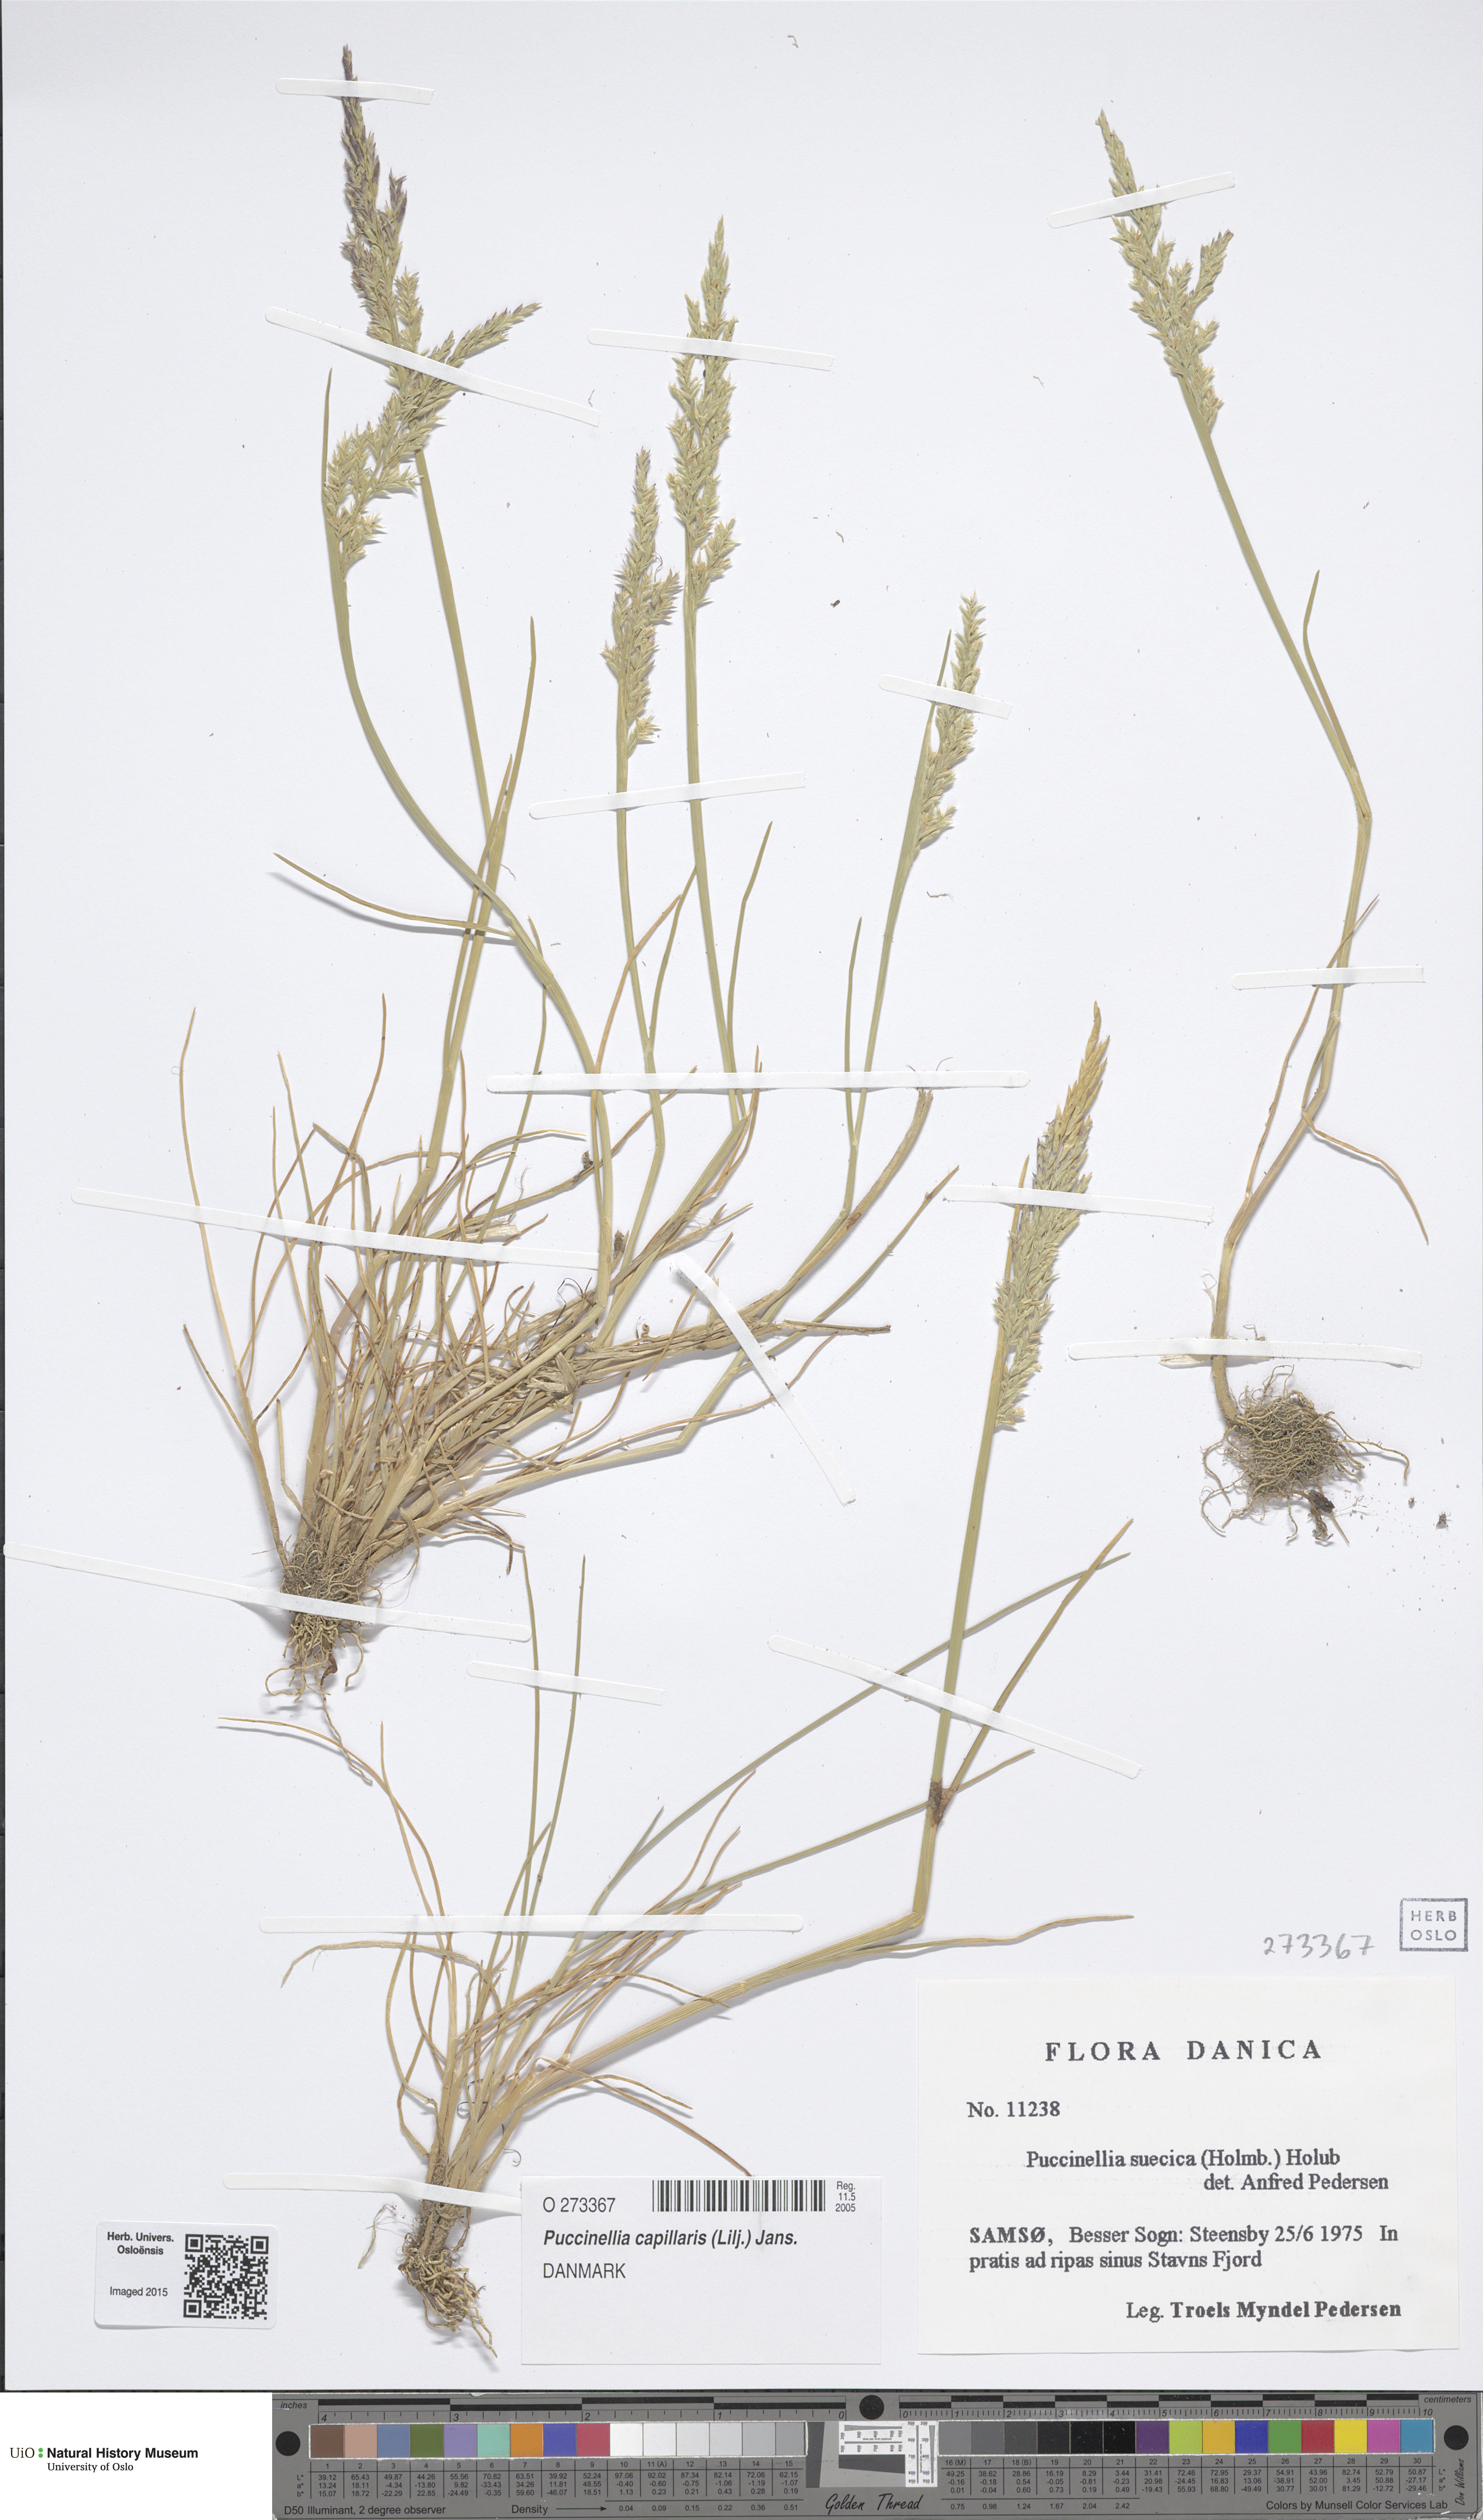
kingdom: Plantae
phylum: Tracheophyta
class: Liliopsida
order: Poales
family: Poaceae
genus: Puccinellia
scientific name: Puccinellia distans
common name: Weeping alkaligrass
